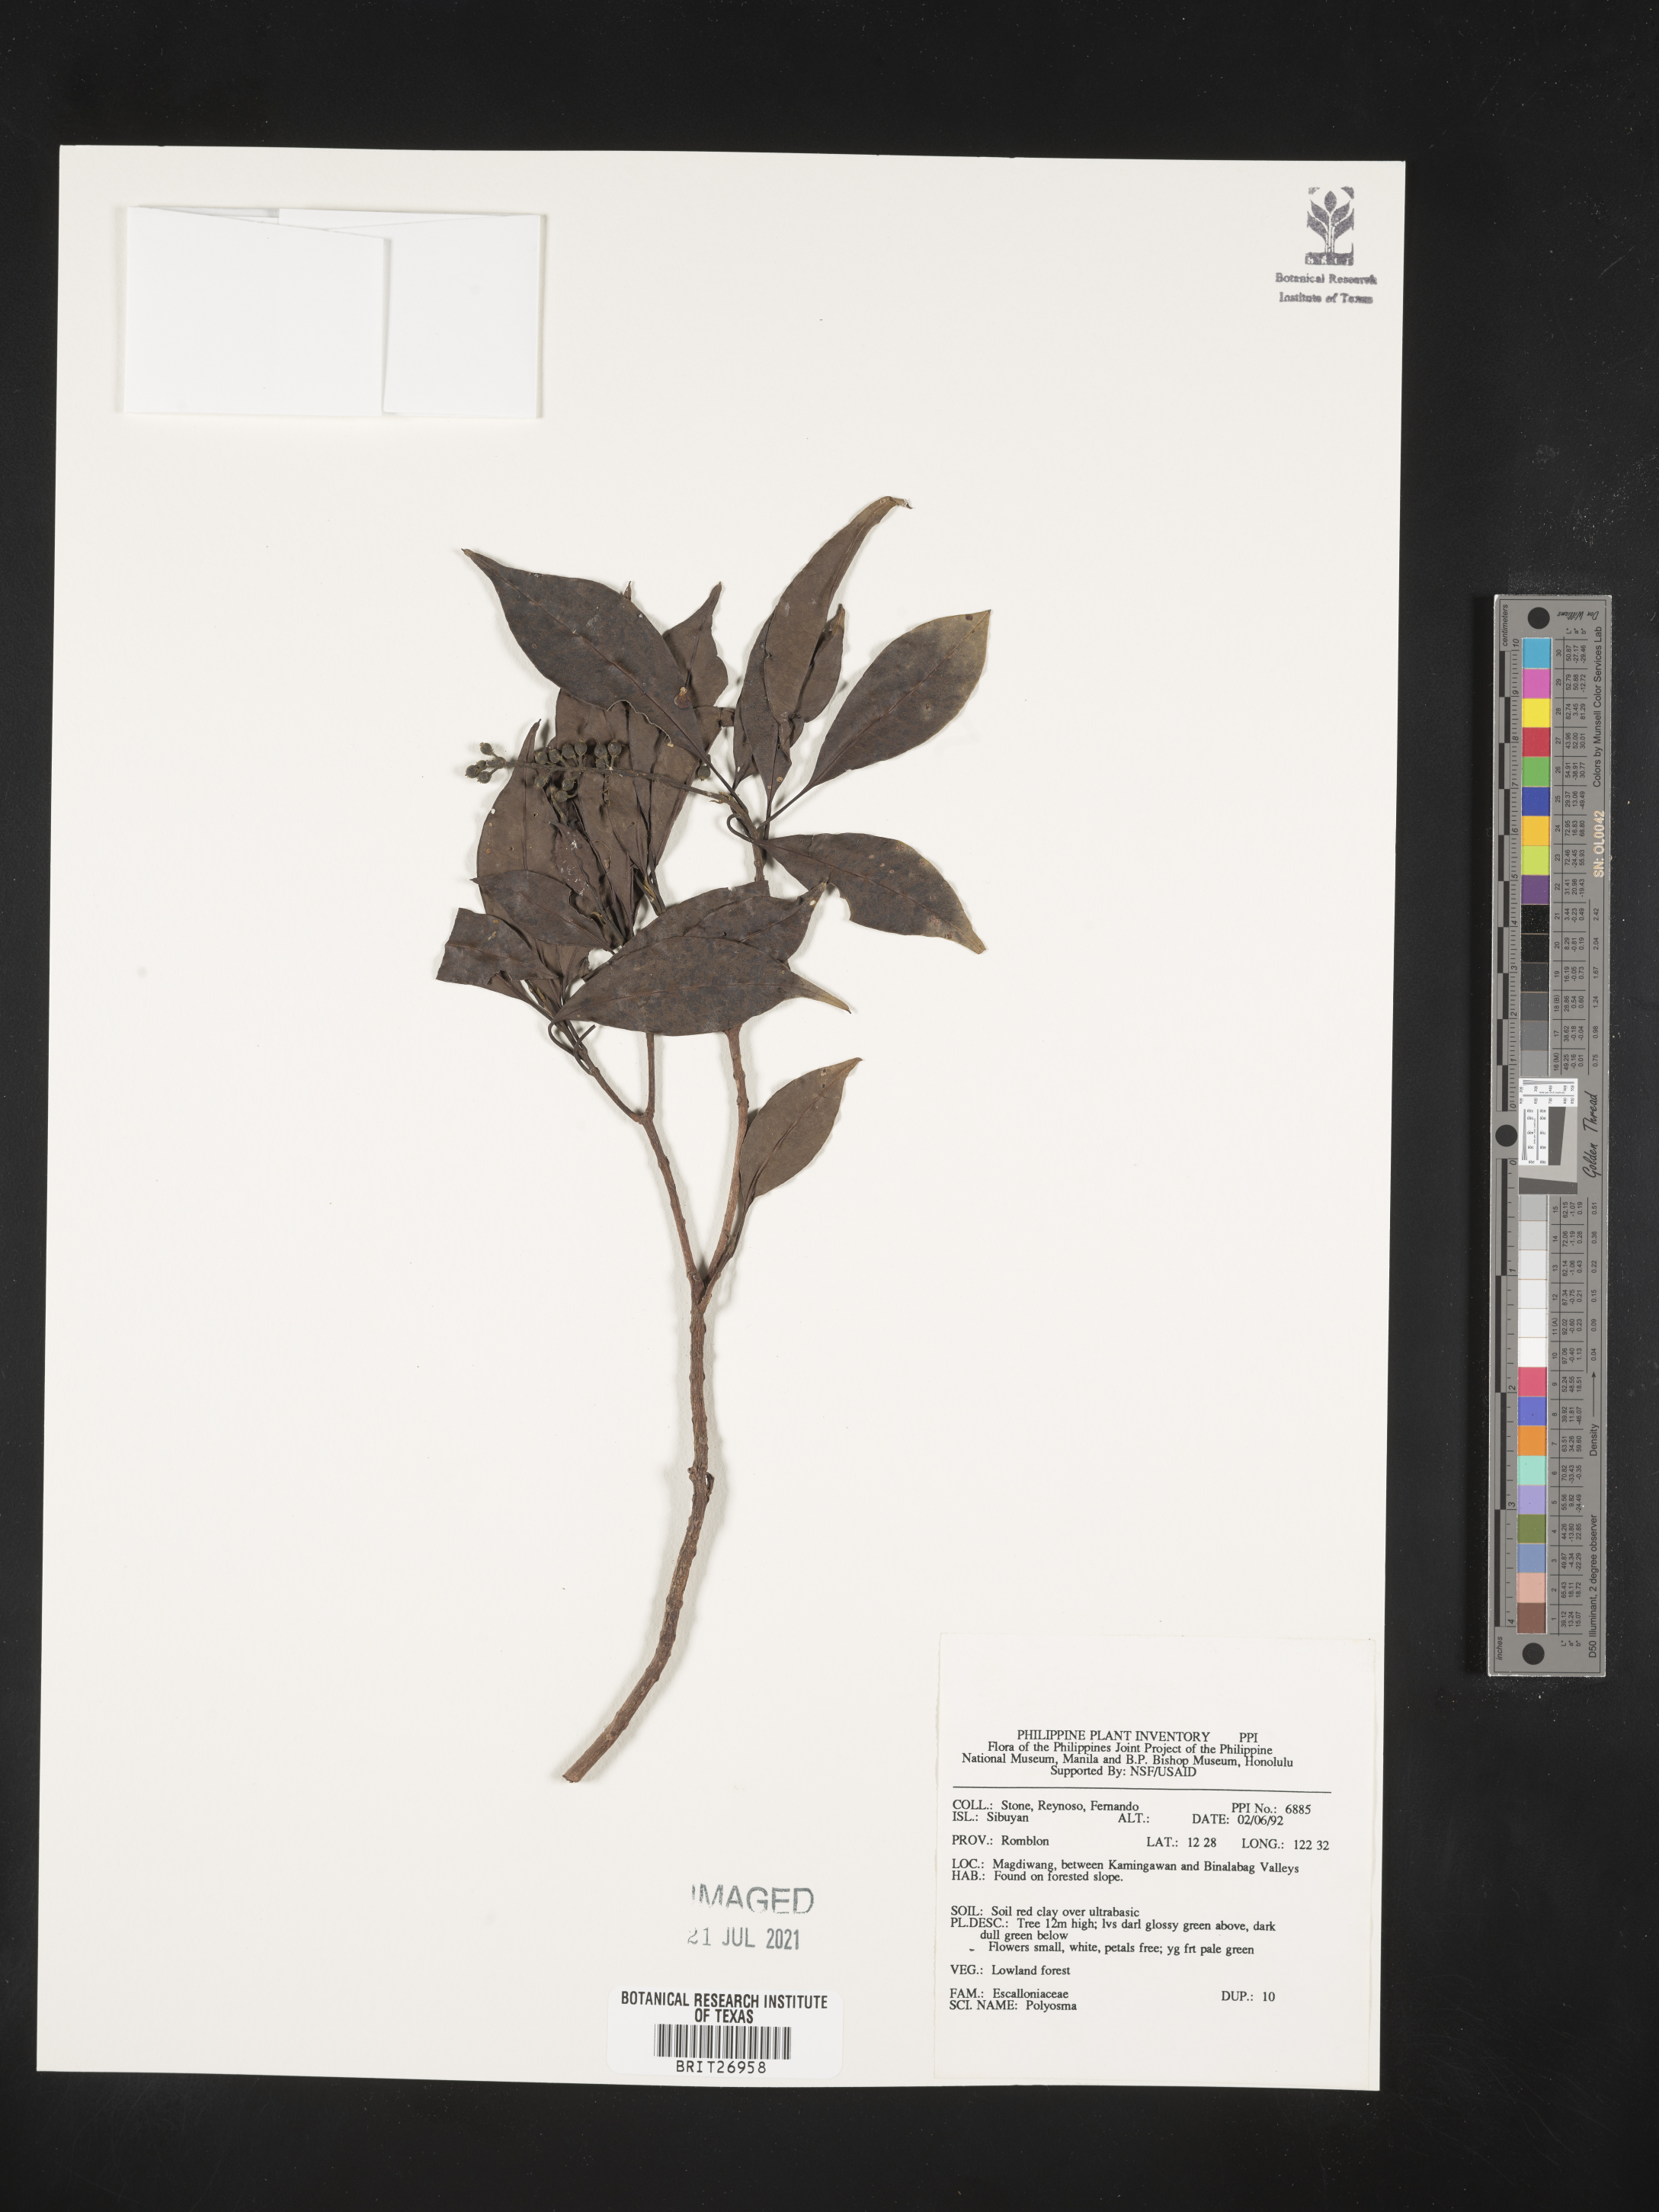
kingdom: Plantae
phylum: Tracheophyta
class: Magnoliopsida
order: Escalloniales
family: Escalloniaceae
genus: Polyosma
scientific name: Polyosma
